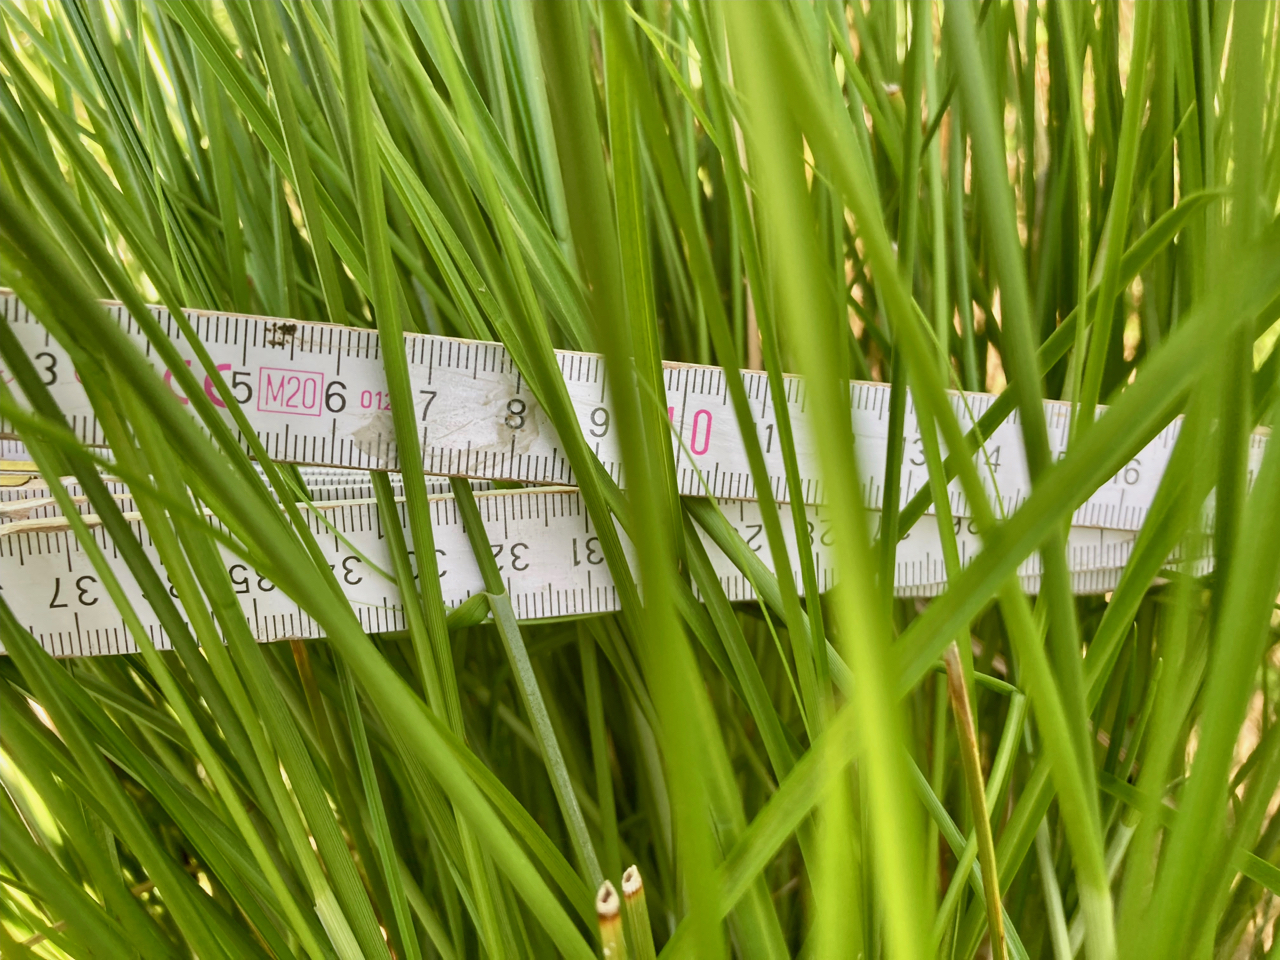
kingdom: Plantae
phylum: Tracheophyta
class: Liliopsida
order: Poales
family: Cyperaceae
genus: Carex
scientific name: Carex paniculata
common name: Top-star
